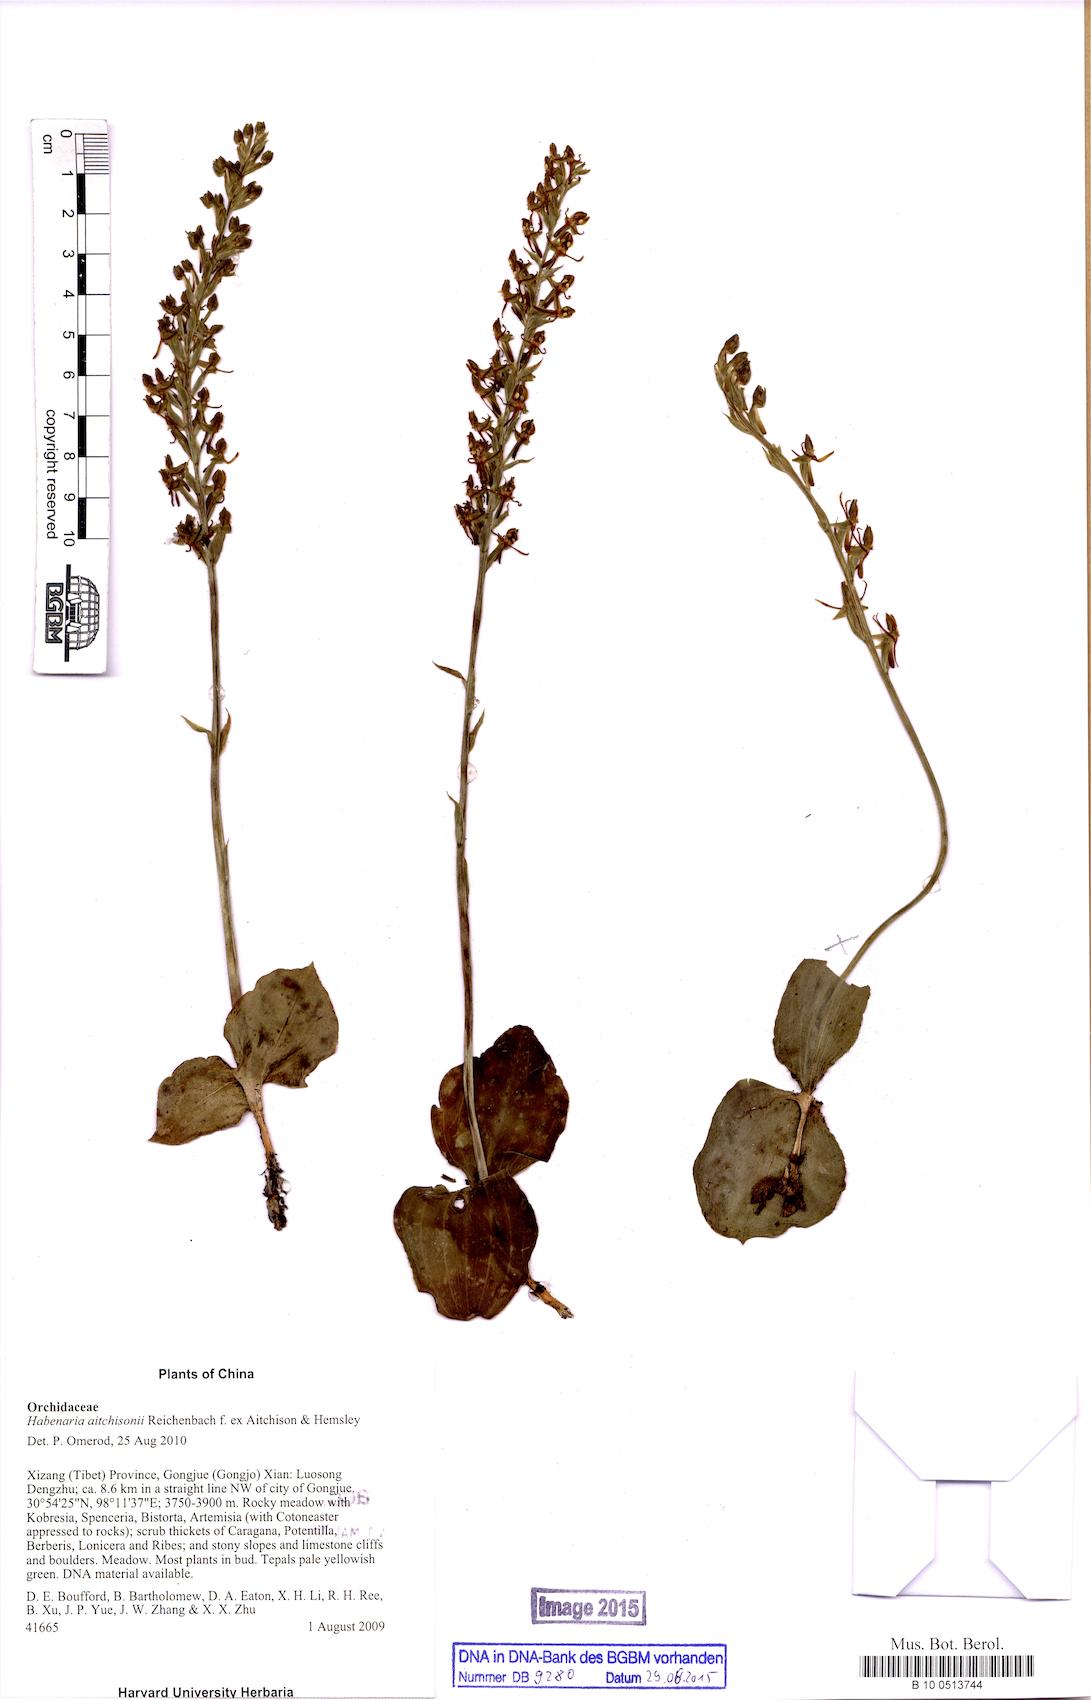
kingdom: Plantae
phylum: Tracheophyta
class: Liliopsida
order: Asparagales
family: Orchidaceae
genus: Habenaria
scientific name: Habenaria aitchisonii
